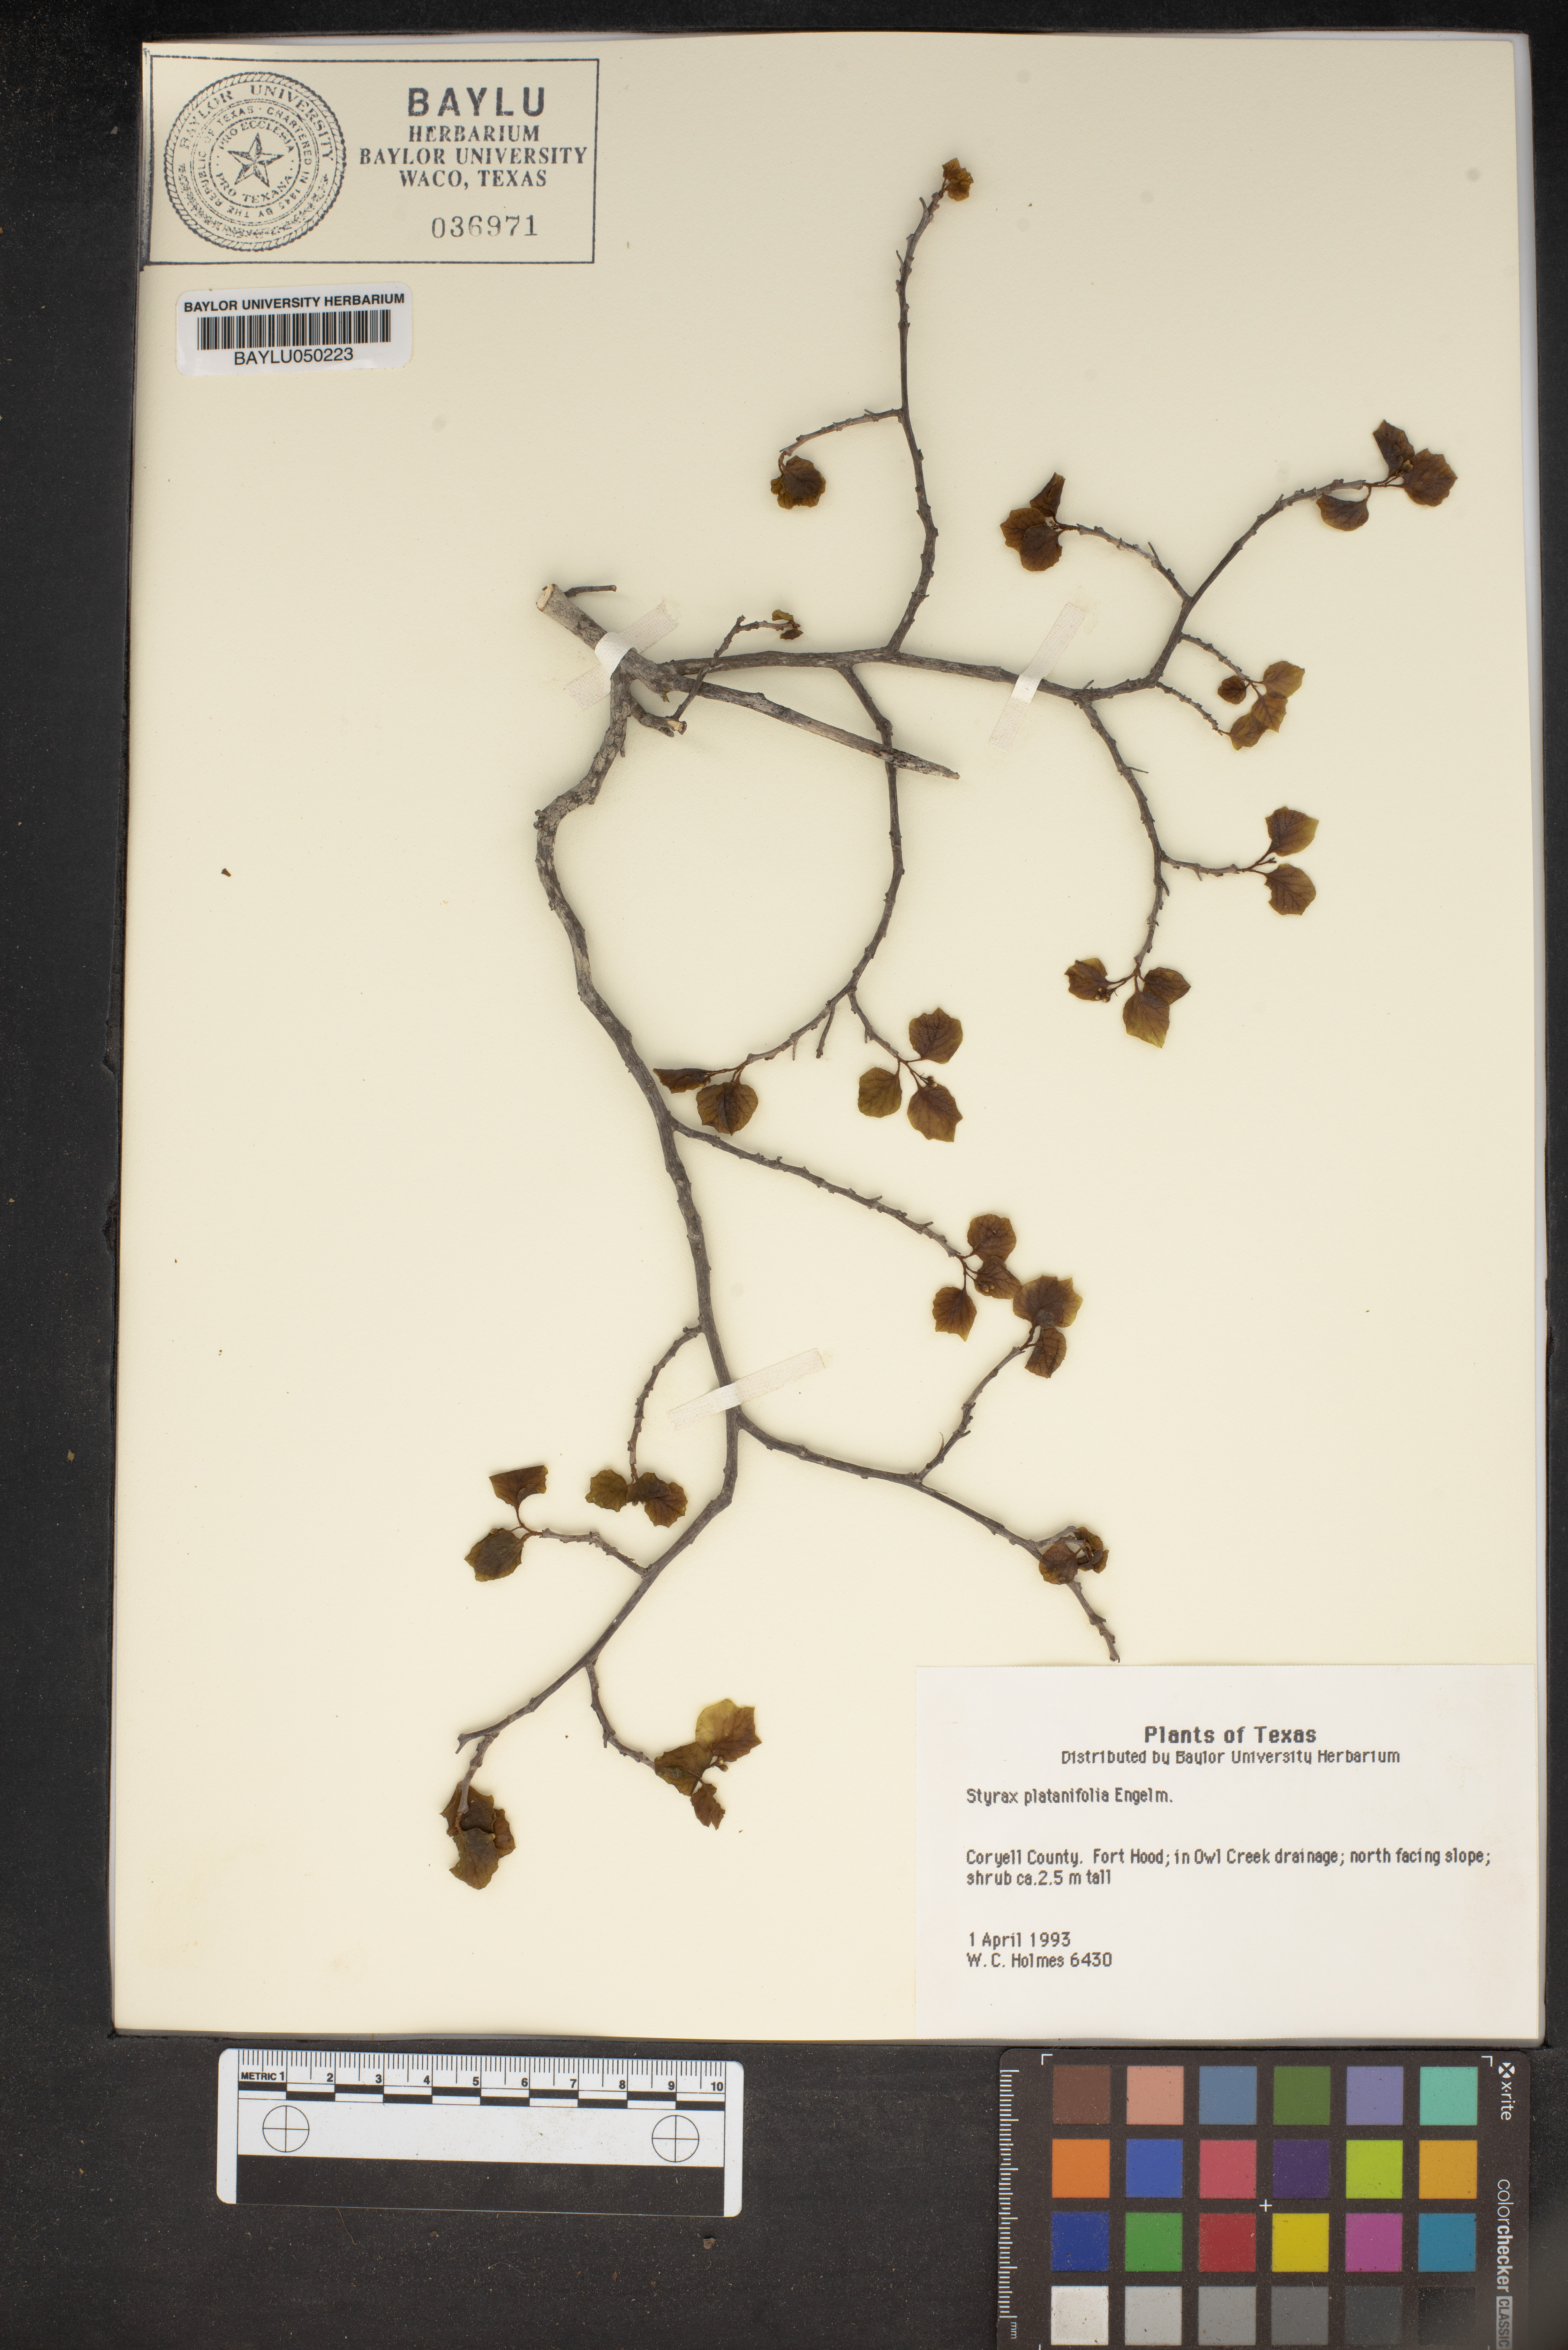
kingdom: Plantae
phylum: Tracheophyta
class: Magnoliopsida
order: Ericales
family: Styracaceae
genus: Styrax
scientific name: Styrax platanifolius
